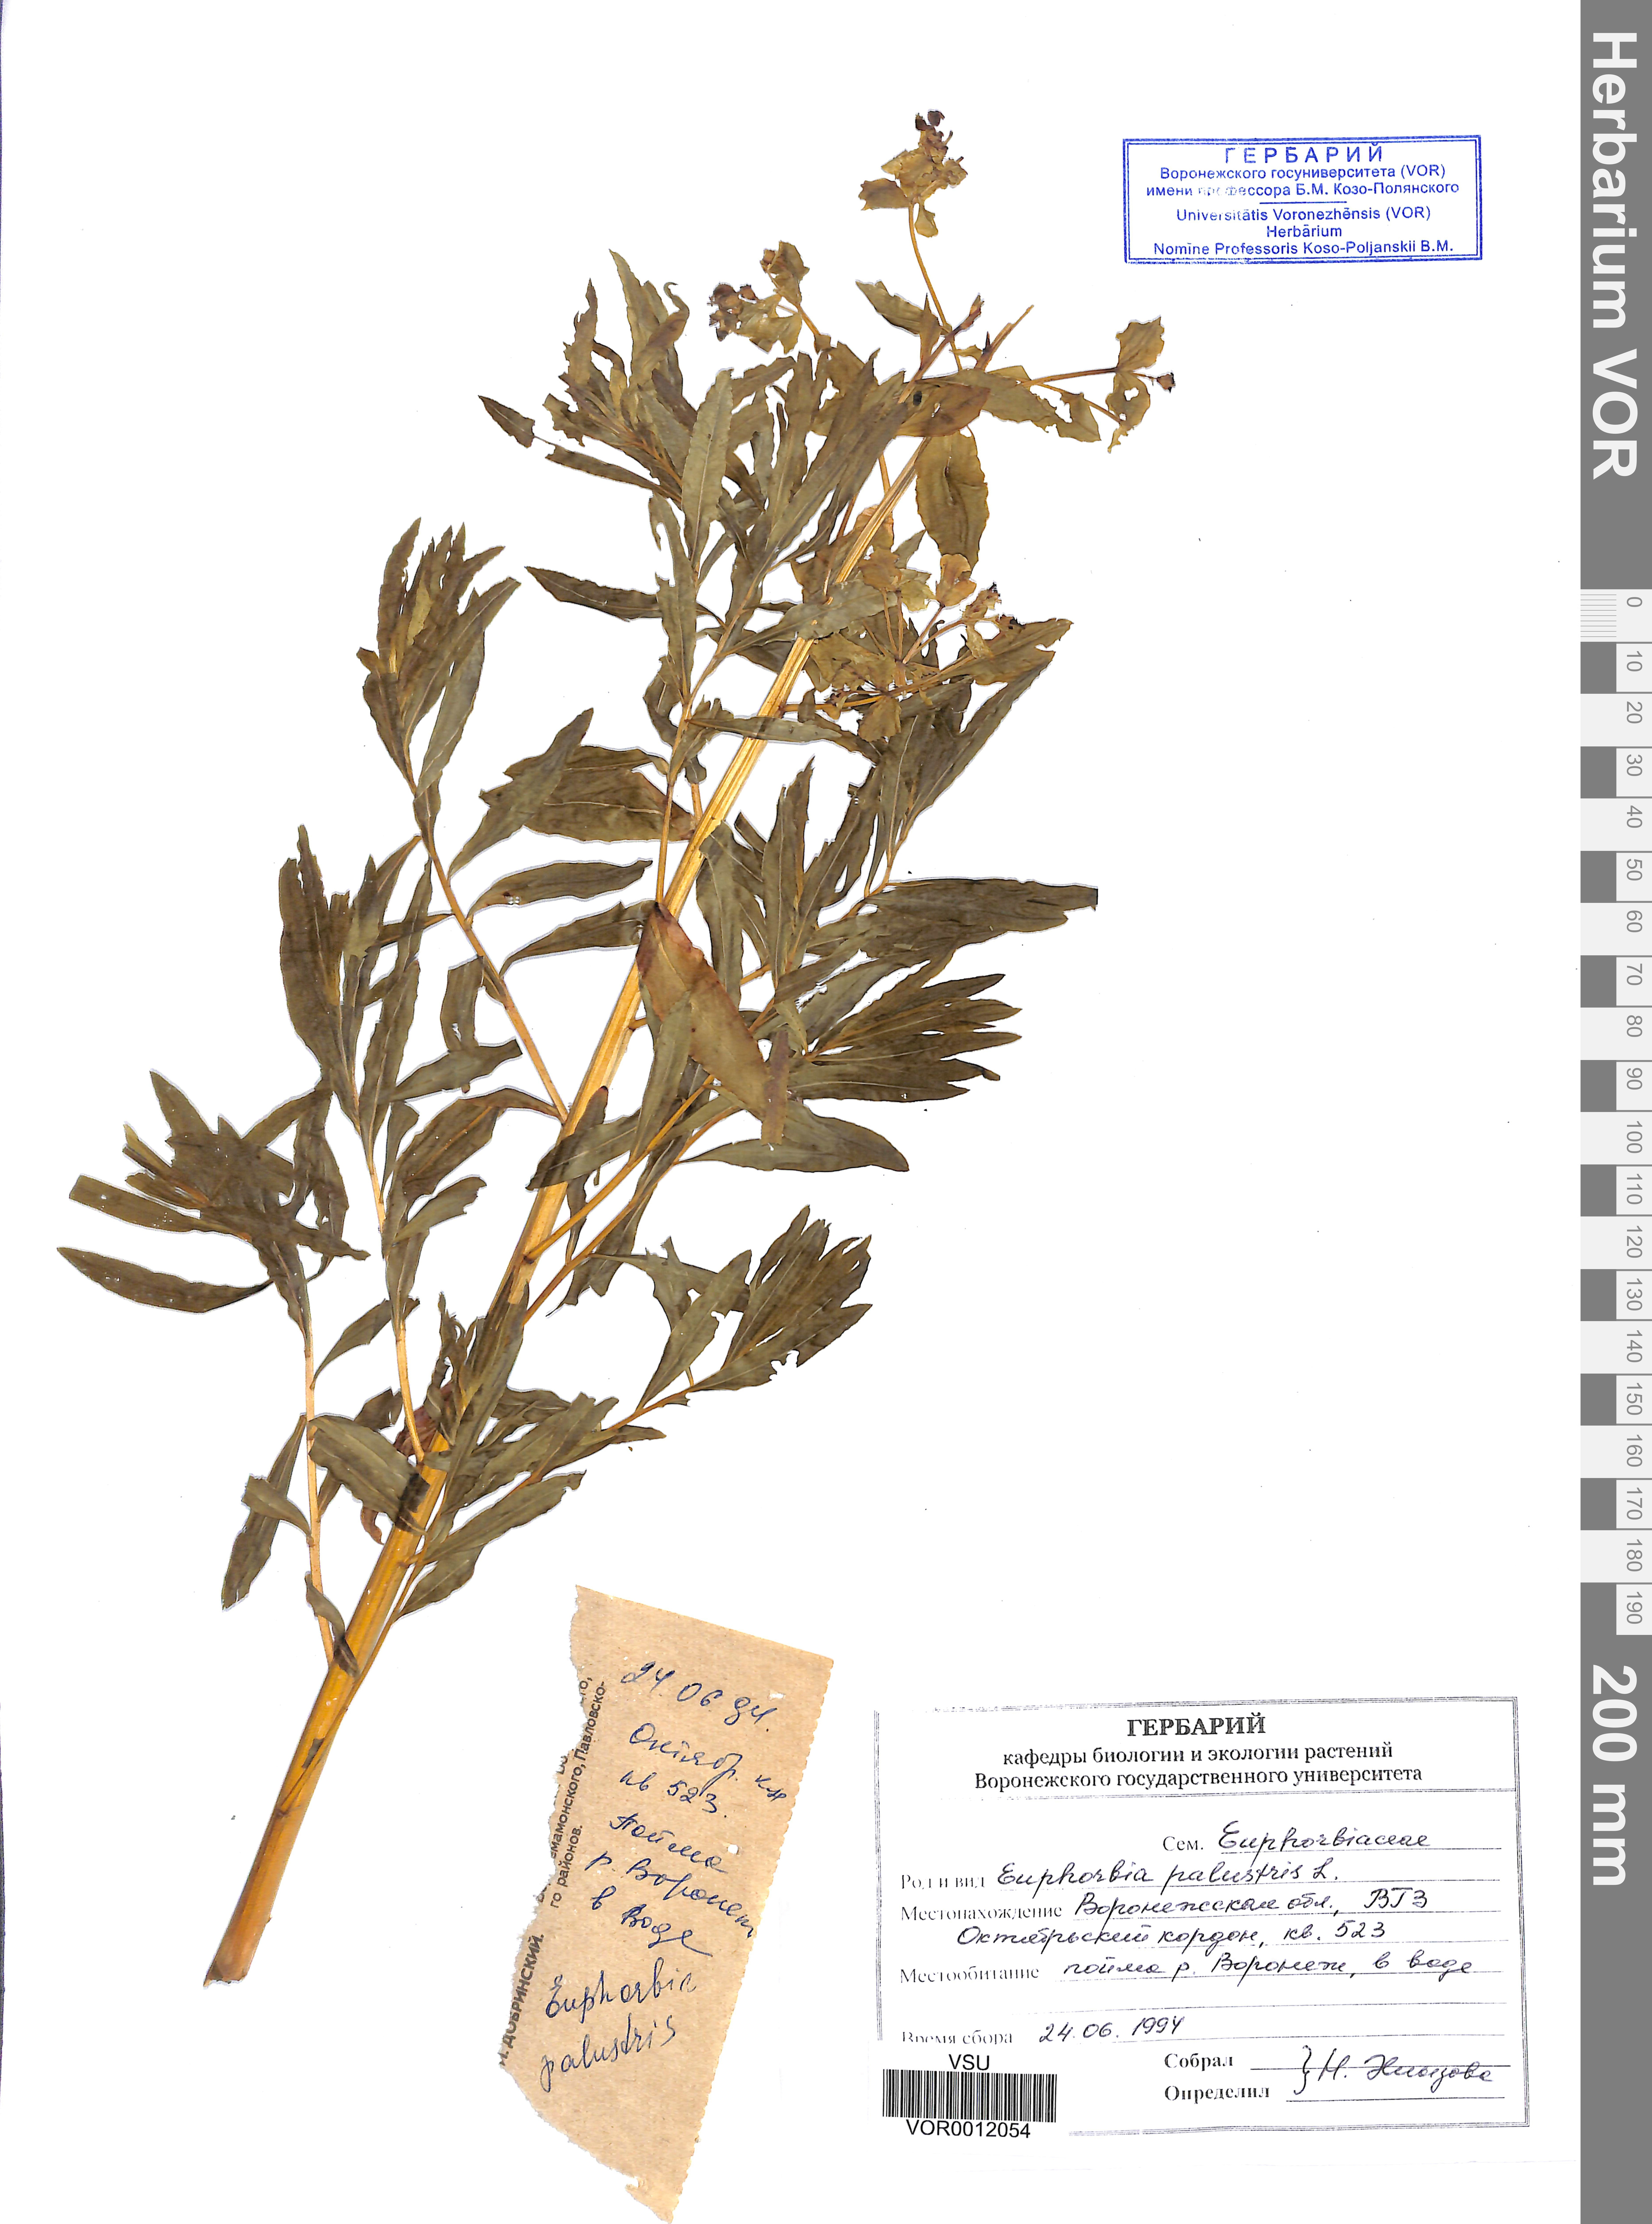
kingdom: Plantae
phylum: Tracheophyta
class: Magnoliopsida
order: Malpighiales
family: Euphorbiaceae
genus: Euphorbia
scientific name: Euphorbia palustris
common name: Marsh spurge
